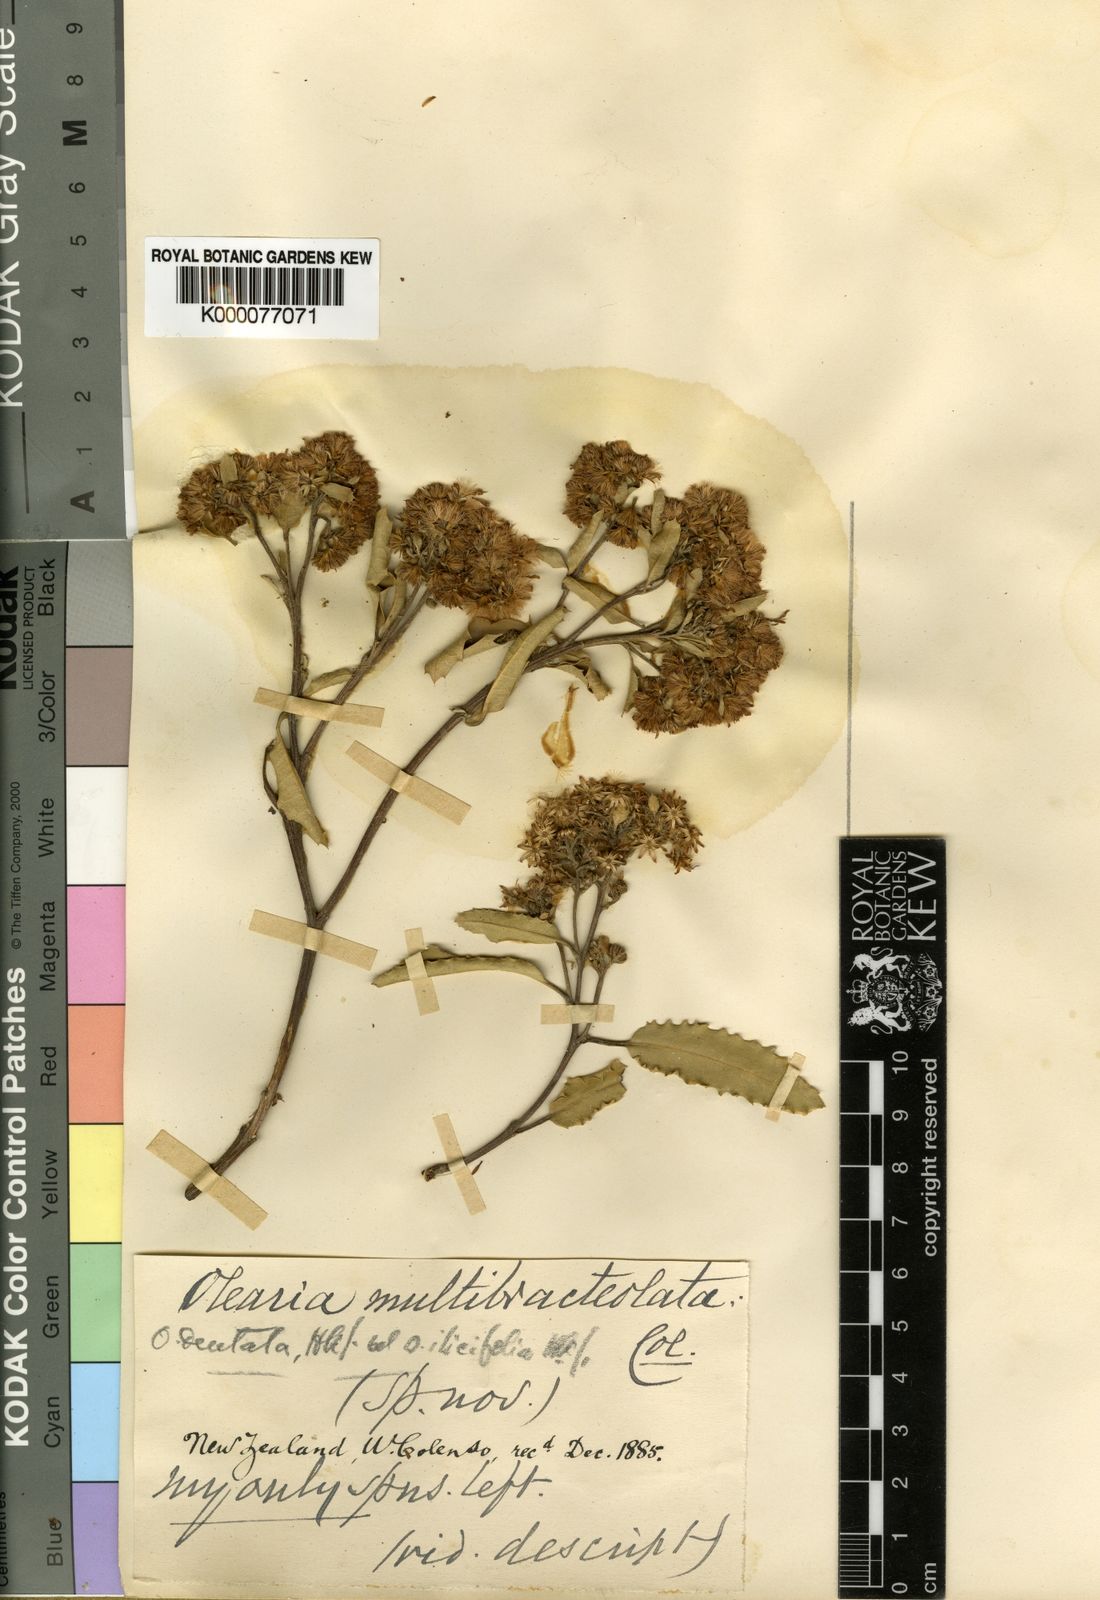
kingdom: Plantae
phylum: Tracheophyta
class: Magnoliopsida
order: Asterales
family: Asteraceae
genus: Olearia
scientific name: Olearia ilicifolia
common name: Maori-holly
